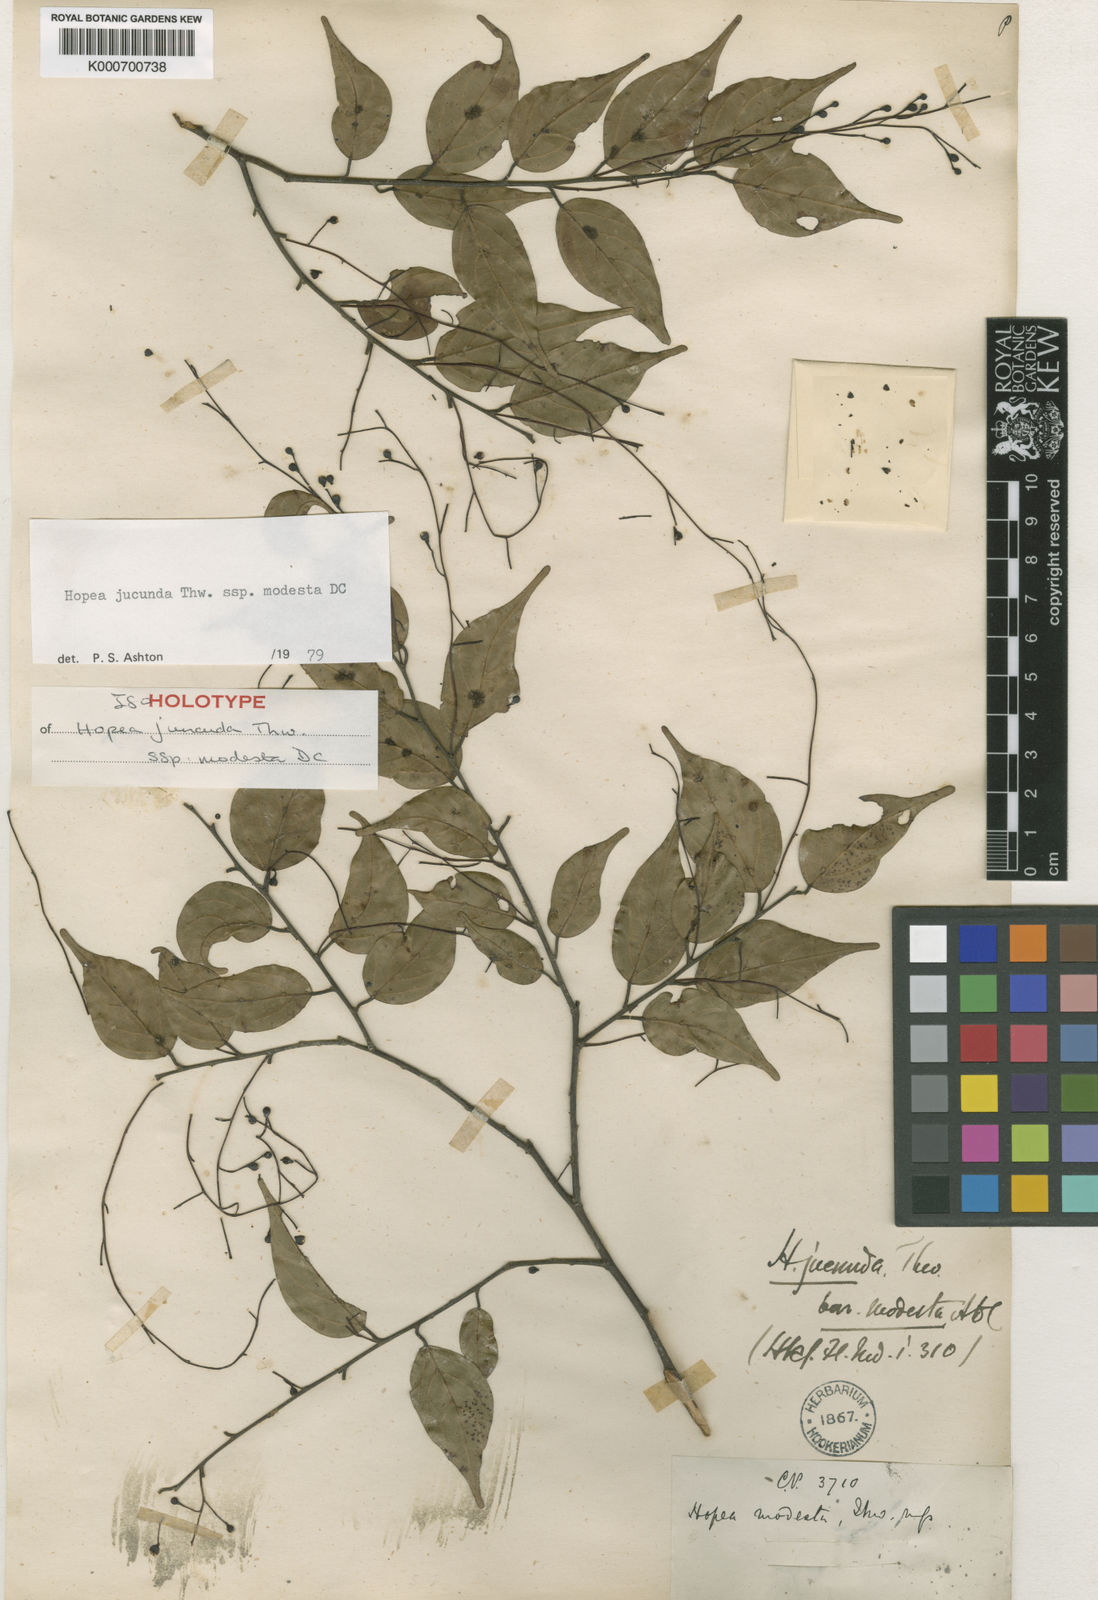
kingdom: Plantae
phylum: Tracheophyta
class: Magnoliopsida
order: Malvales
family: Dipterocarpaceae
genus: Hopea
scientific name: Hopea jucunda
